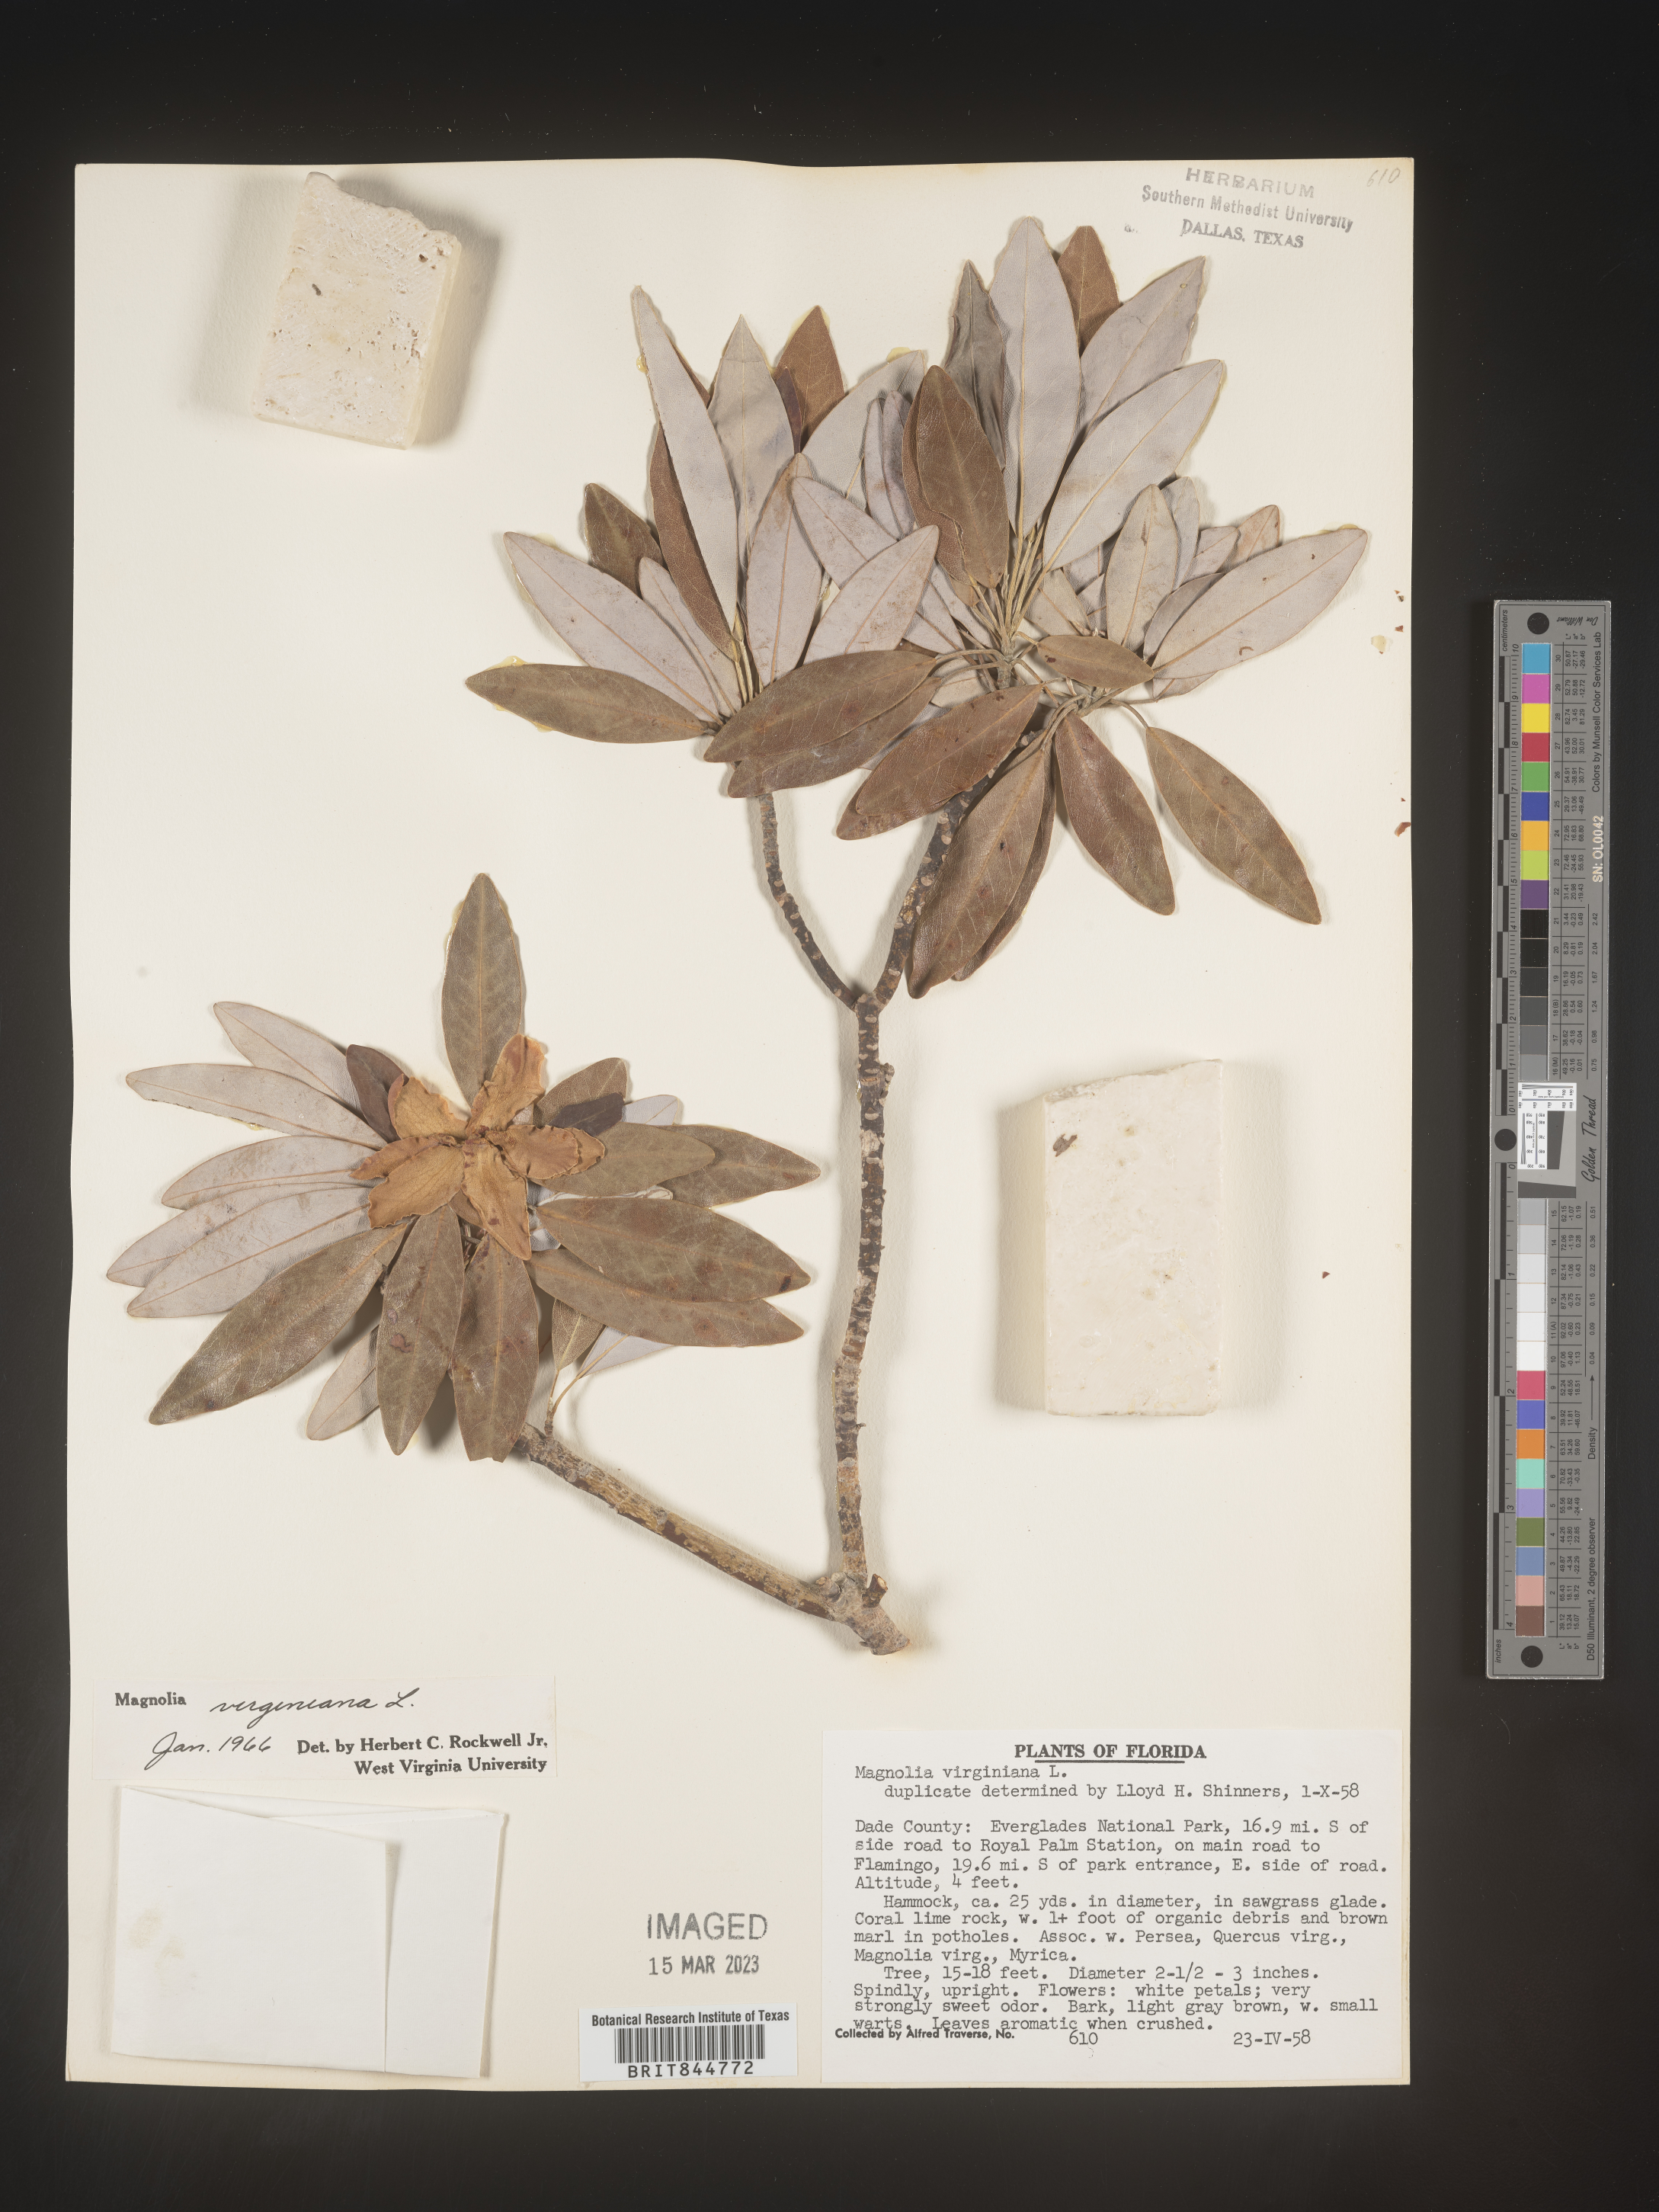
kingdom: Plantae
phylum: Tracheophyta
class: Magnoliopsida
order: Magnoliales
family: Magnoliaceae
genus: Magnolia
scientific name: Magnolia virginiana
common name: Swamp bay
